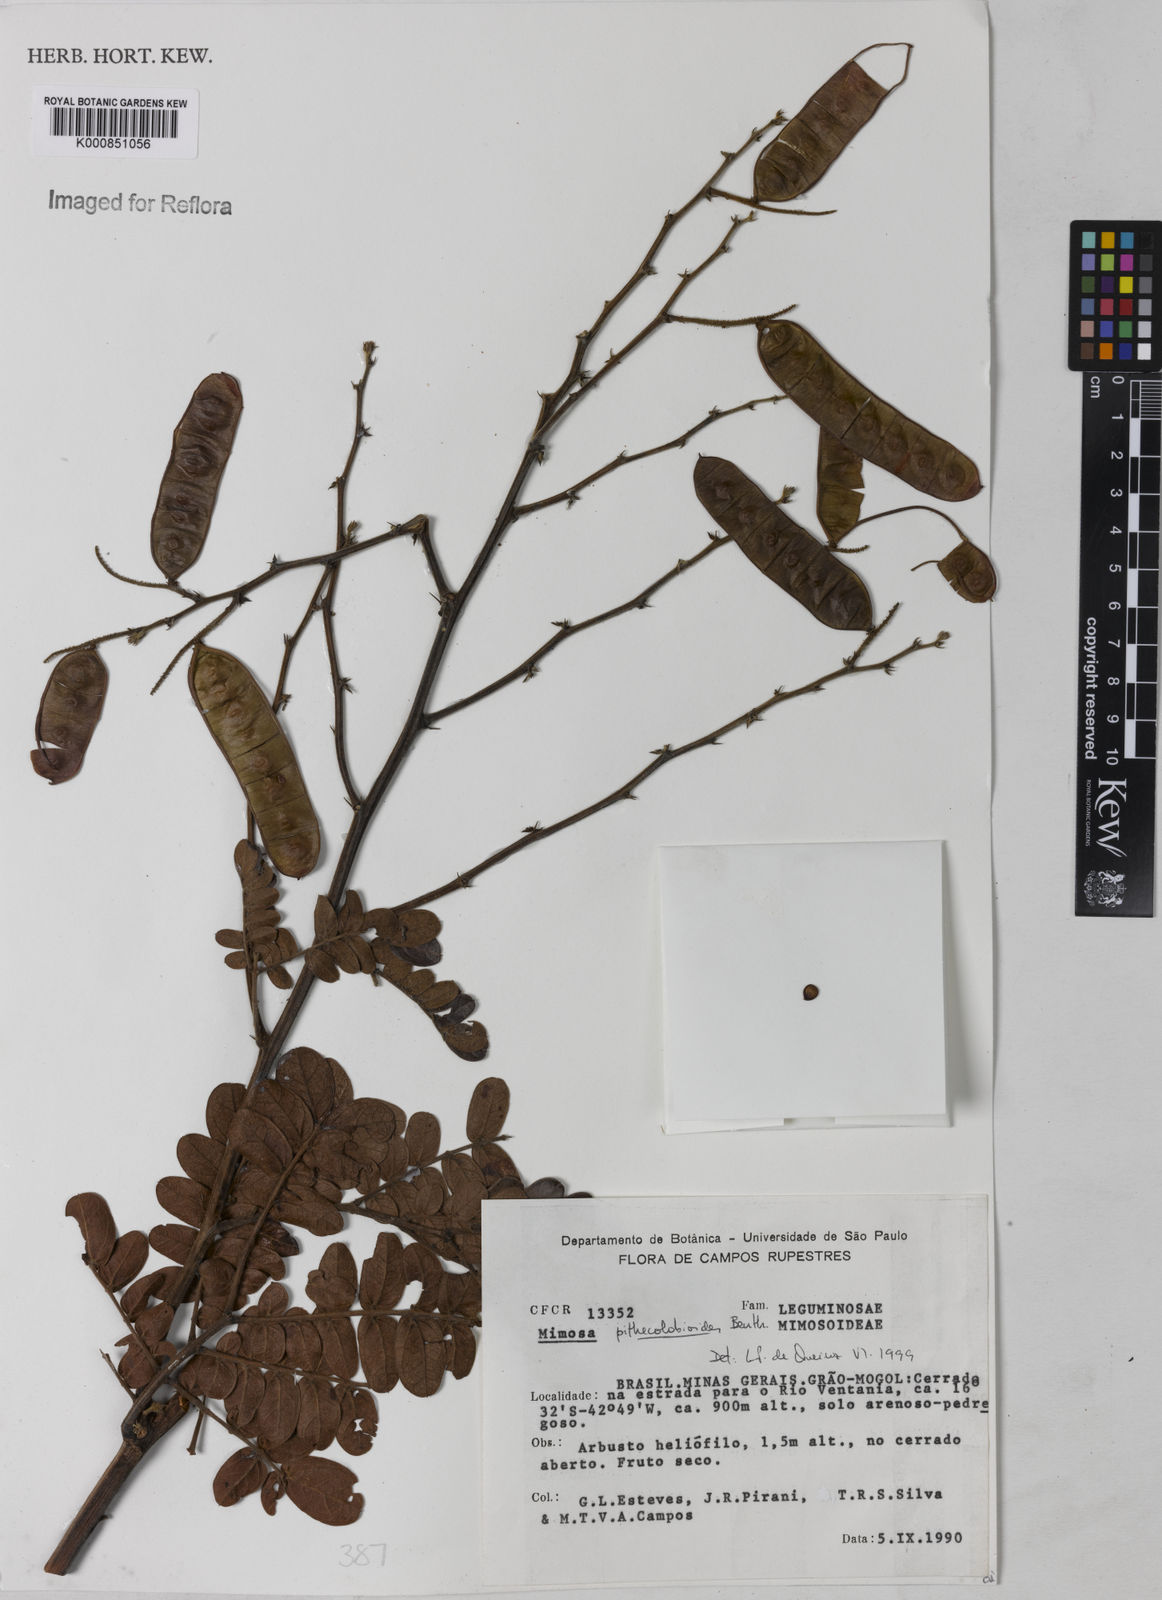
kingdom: Plantae
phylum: Tracheophyta
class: Magnoliopsida
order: Fabales
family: Fabaceae
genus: Mimosa
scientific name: Mimosa pithecolobioides
